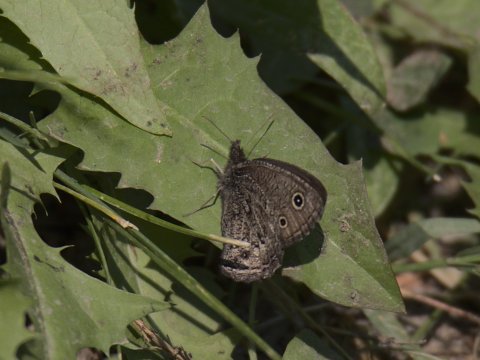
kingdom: Animalia
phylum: Arthropoda
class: Insecta
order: Lepidoptera
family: Nymphalidae
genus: Cercyonis
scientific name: Cercyonis oetus
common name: Small Wood-Nymph
